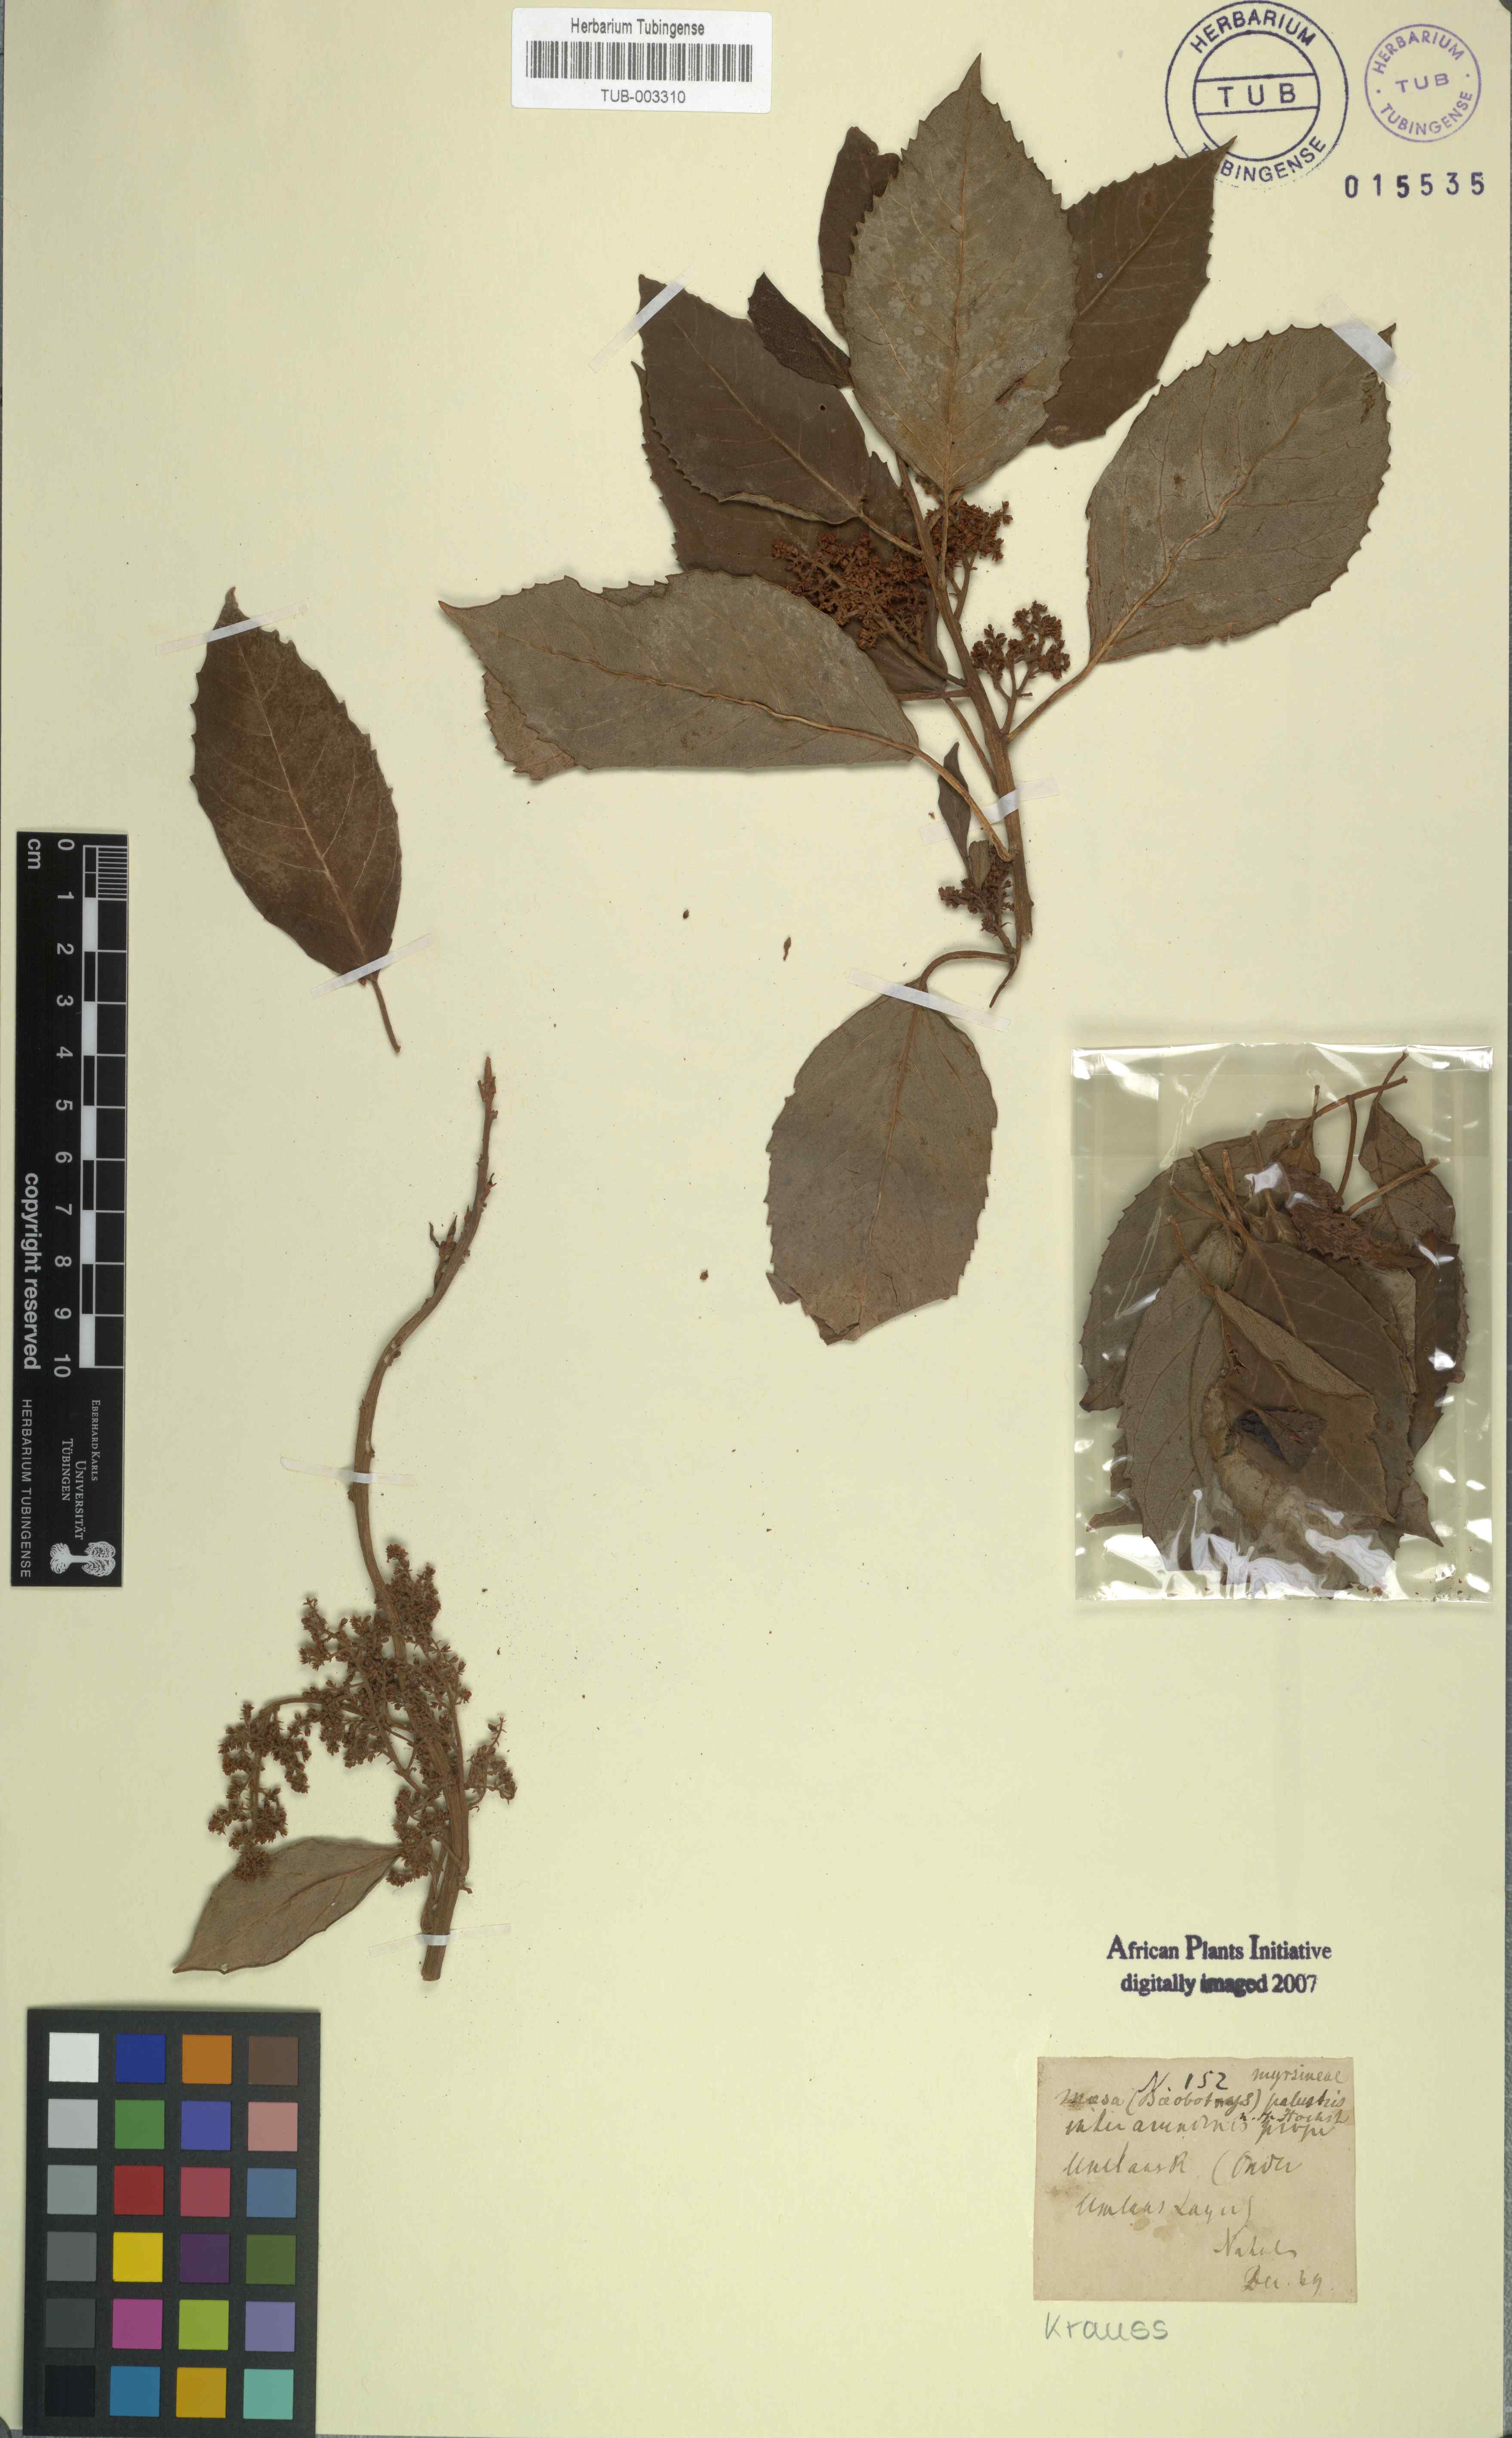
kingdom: Plantae
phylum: Tracheophyta
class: Magnoliopsida
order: Ericales
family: Primulaceae
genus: Maesa
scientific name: Maesa lanceolata
